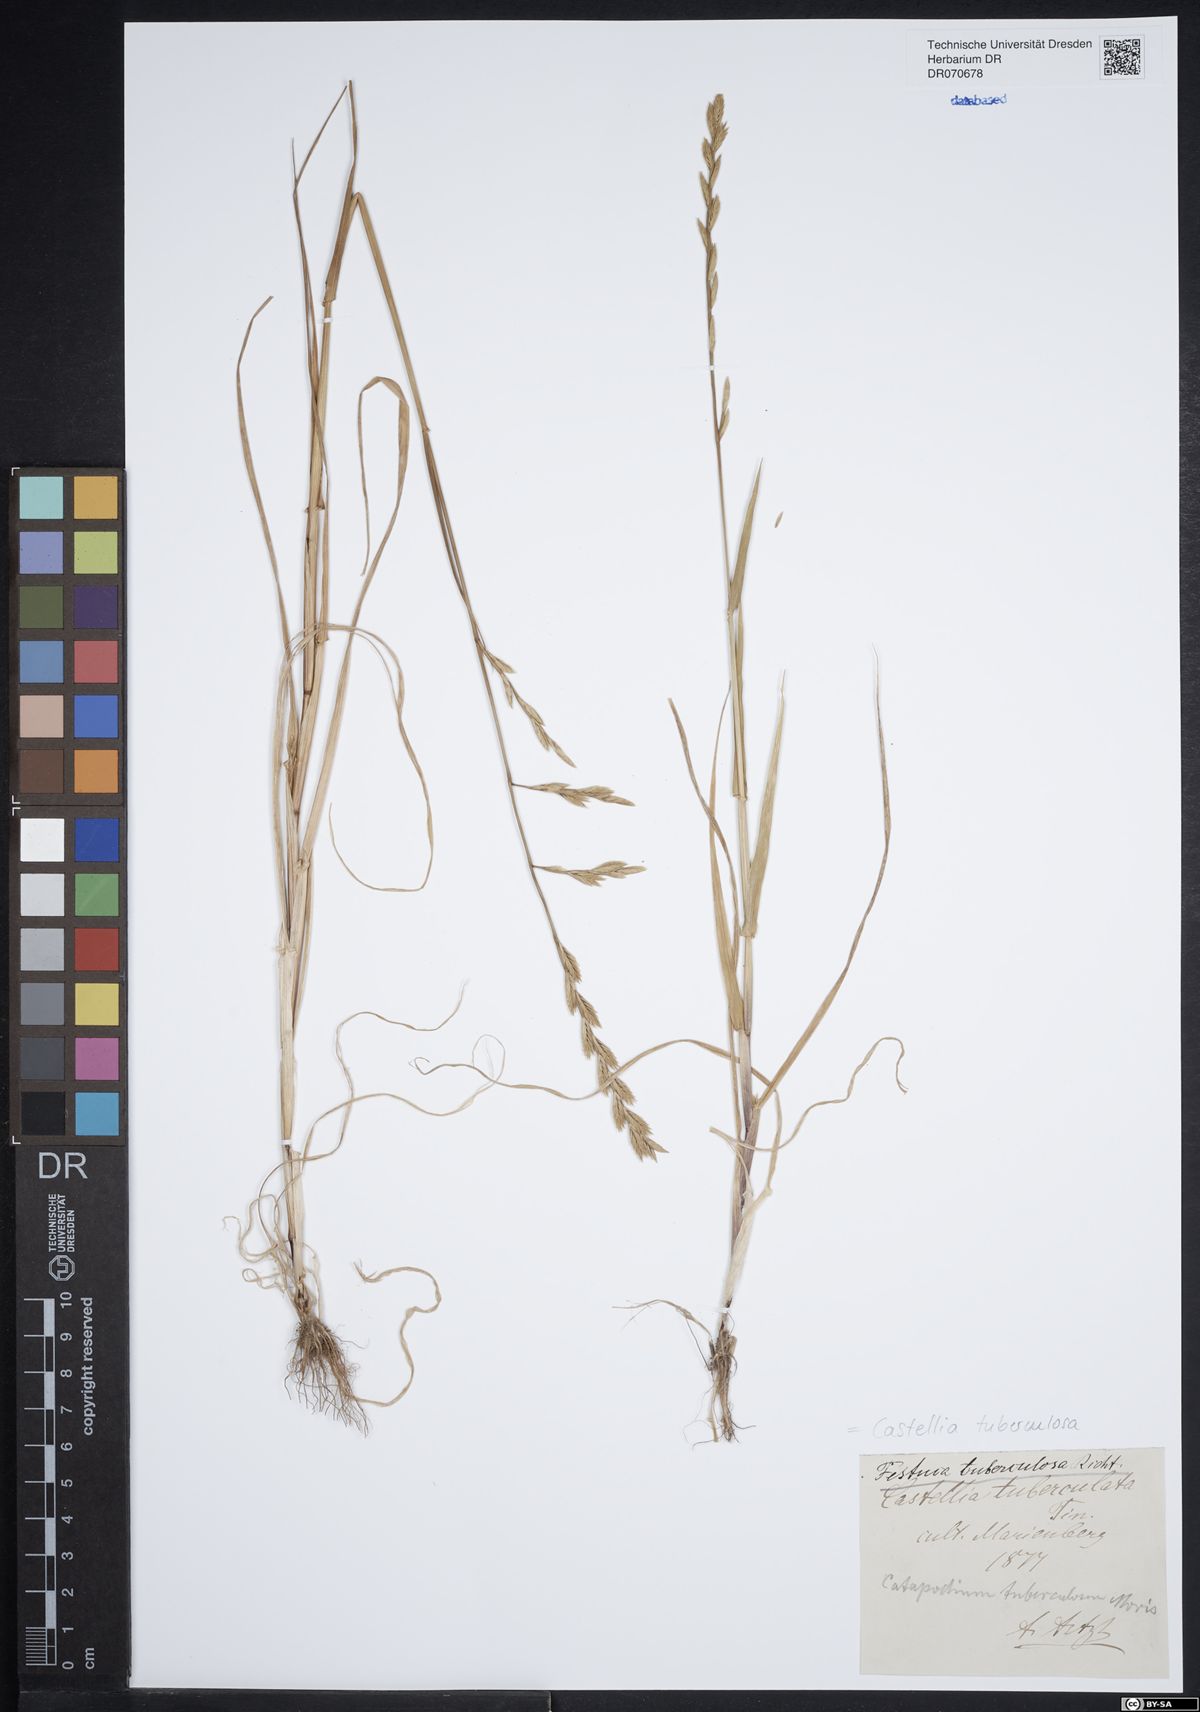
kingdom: Plantae
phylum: Tracheophyta
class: Liliopsida
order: Poales
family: Poaceae
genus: Castellia
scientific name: Castellia tuberculosa
